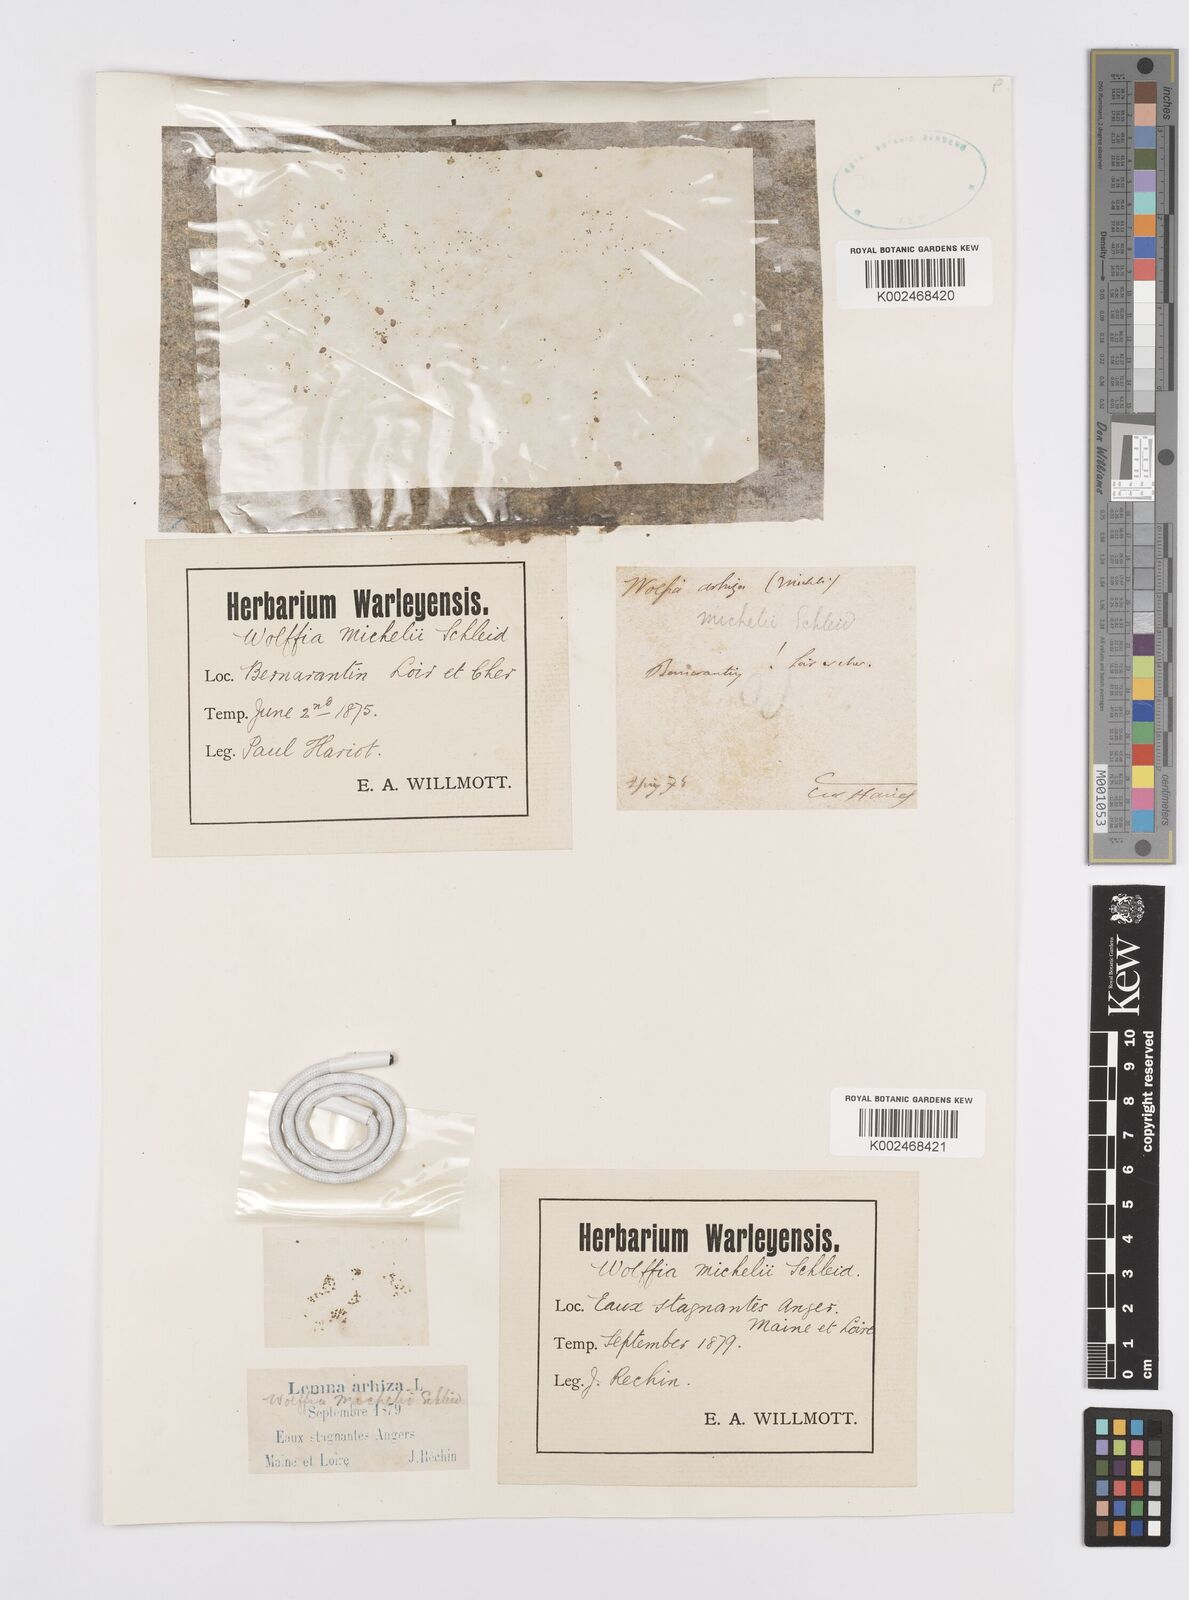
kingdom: Plantae
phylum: Tracheophyta
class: Liliopsida
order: Alismatales
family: Araceae
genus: Wolffia
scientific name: Wolffia arrhiza
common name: Rootless duckweed
